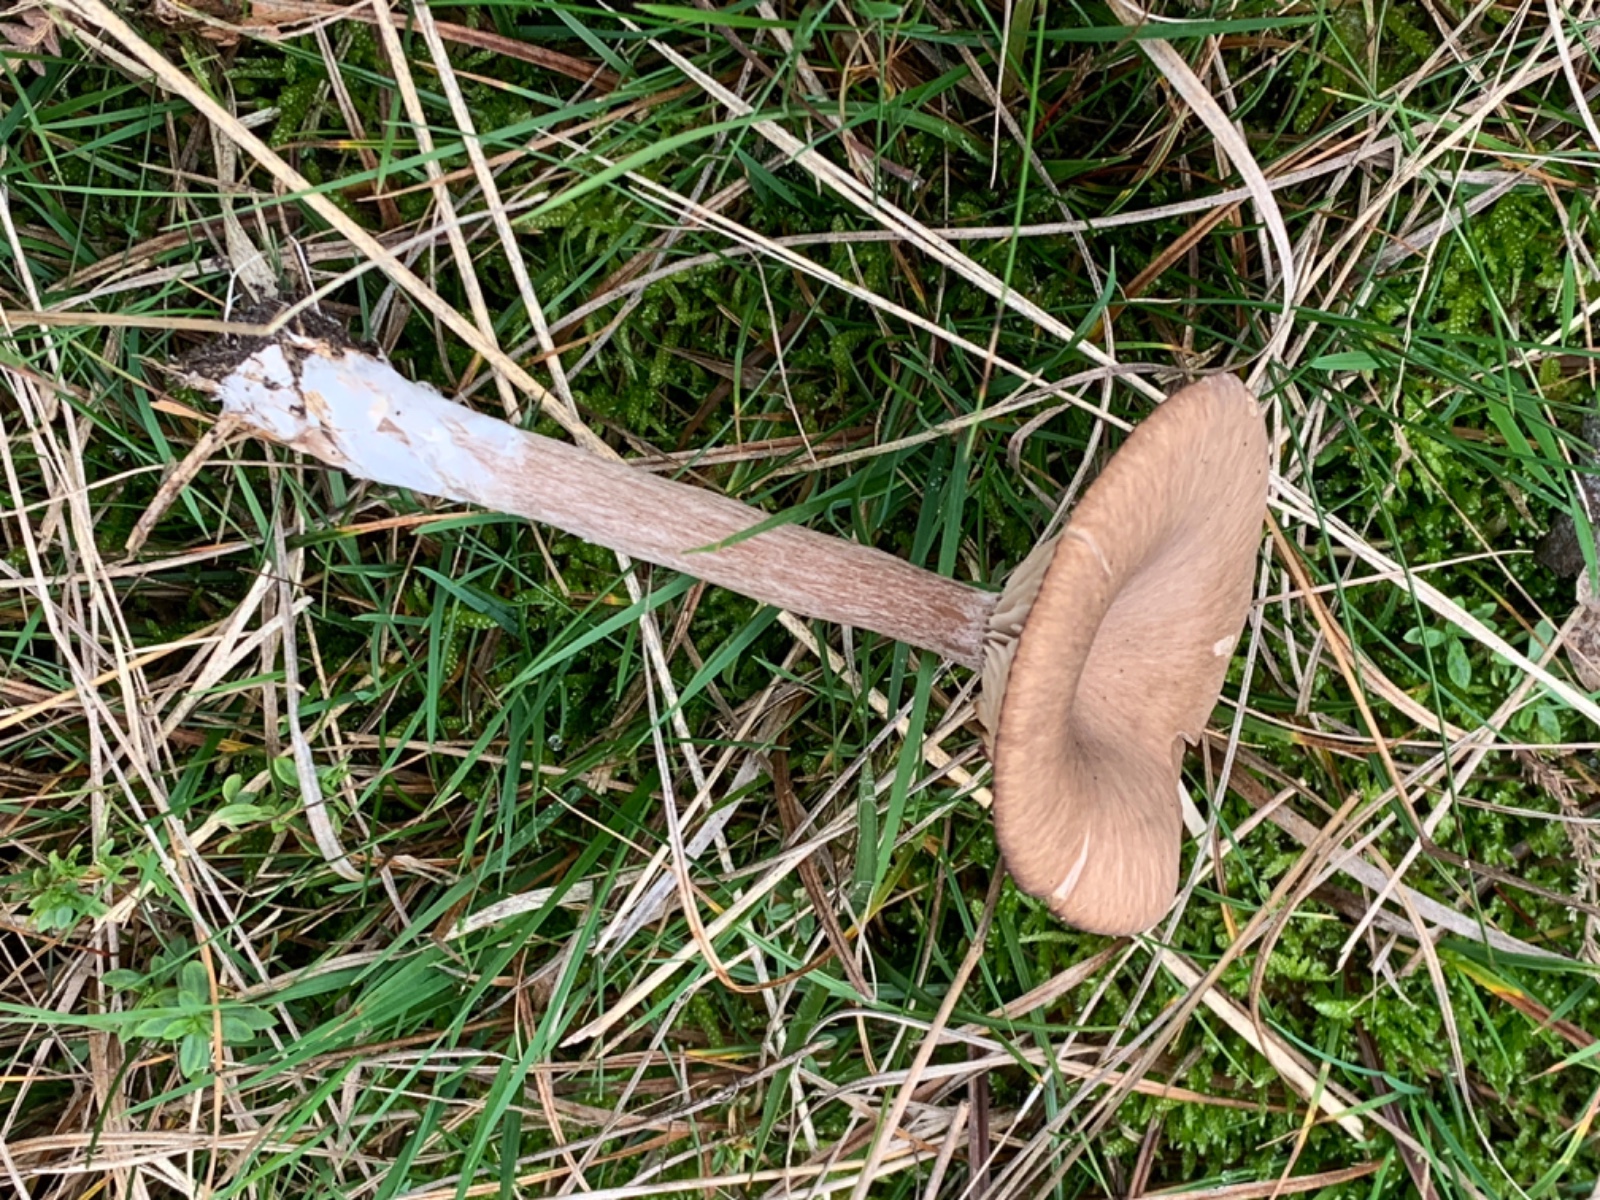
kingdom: Fungi
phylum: Basidiomycota
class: Agaricomycetes
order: Agaricales
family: Pseudoclitocybaceae
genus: Pseudoclitocybe
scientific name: Pseudoclitocybe cyathiformis
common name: almindelig bægertragthat
